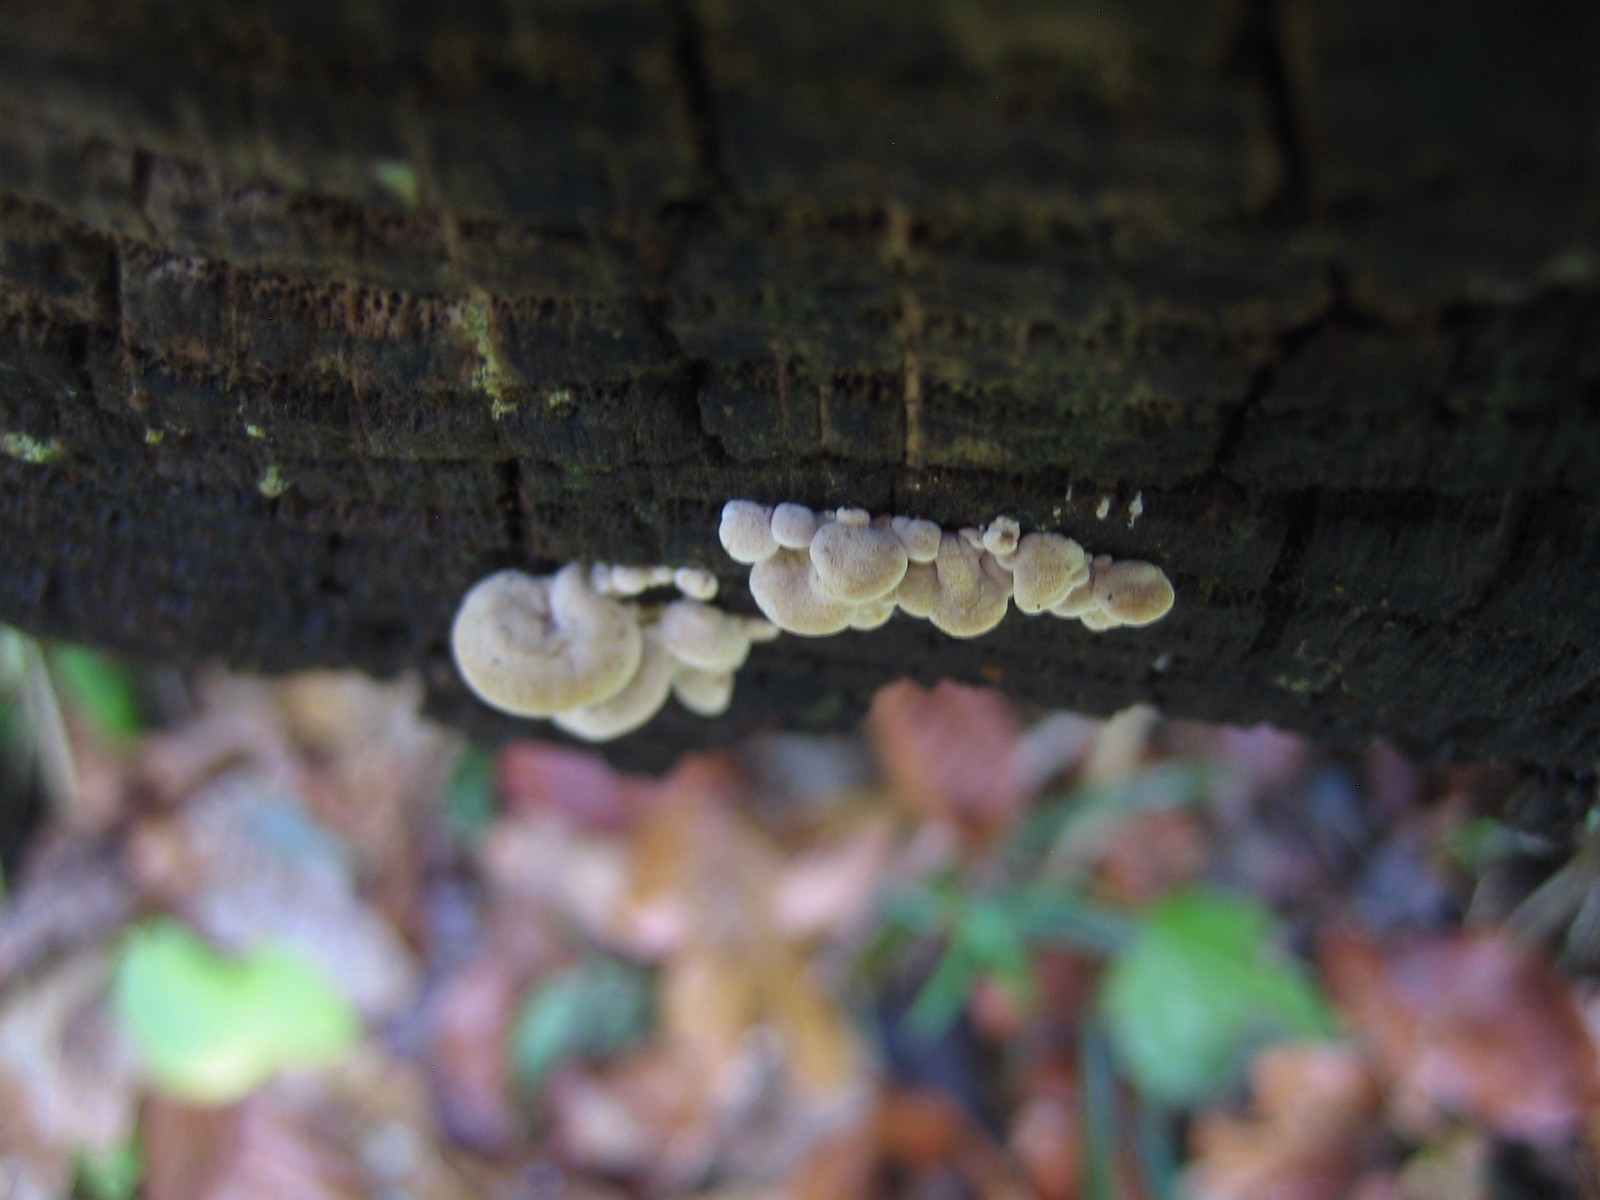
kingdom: Fungi
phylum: Basidiomycota
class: Agaricomycetes
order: Agaricales
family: Mycenaceae
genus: Panellus
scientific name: Panellus stipticus
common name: kliddet epaulethat
